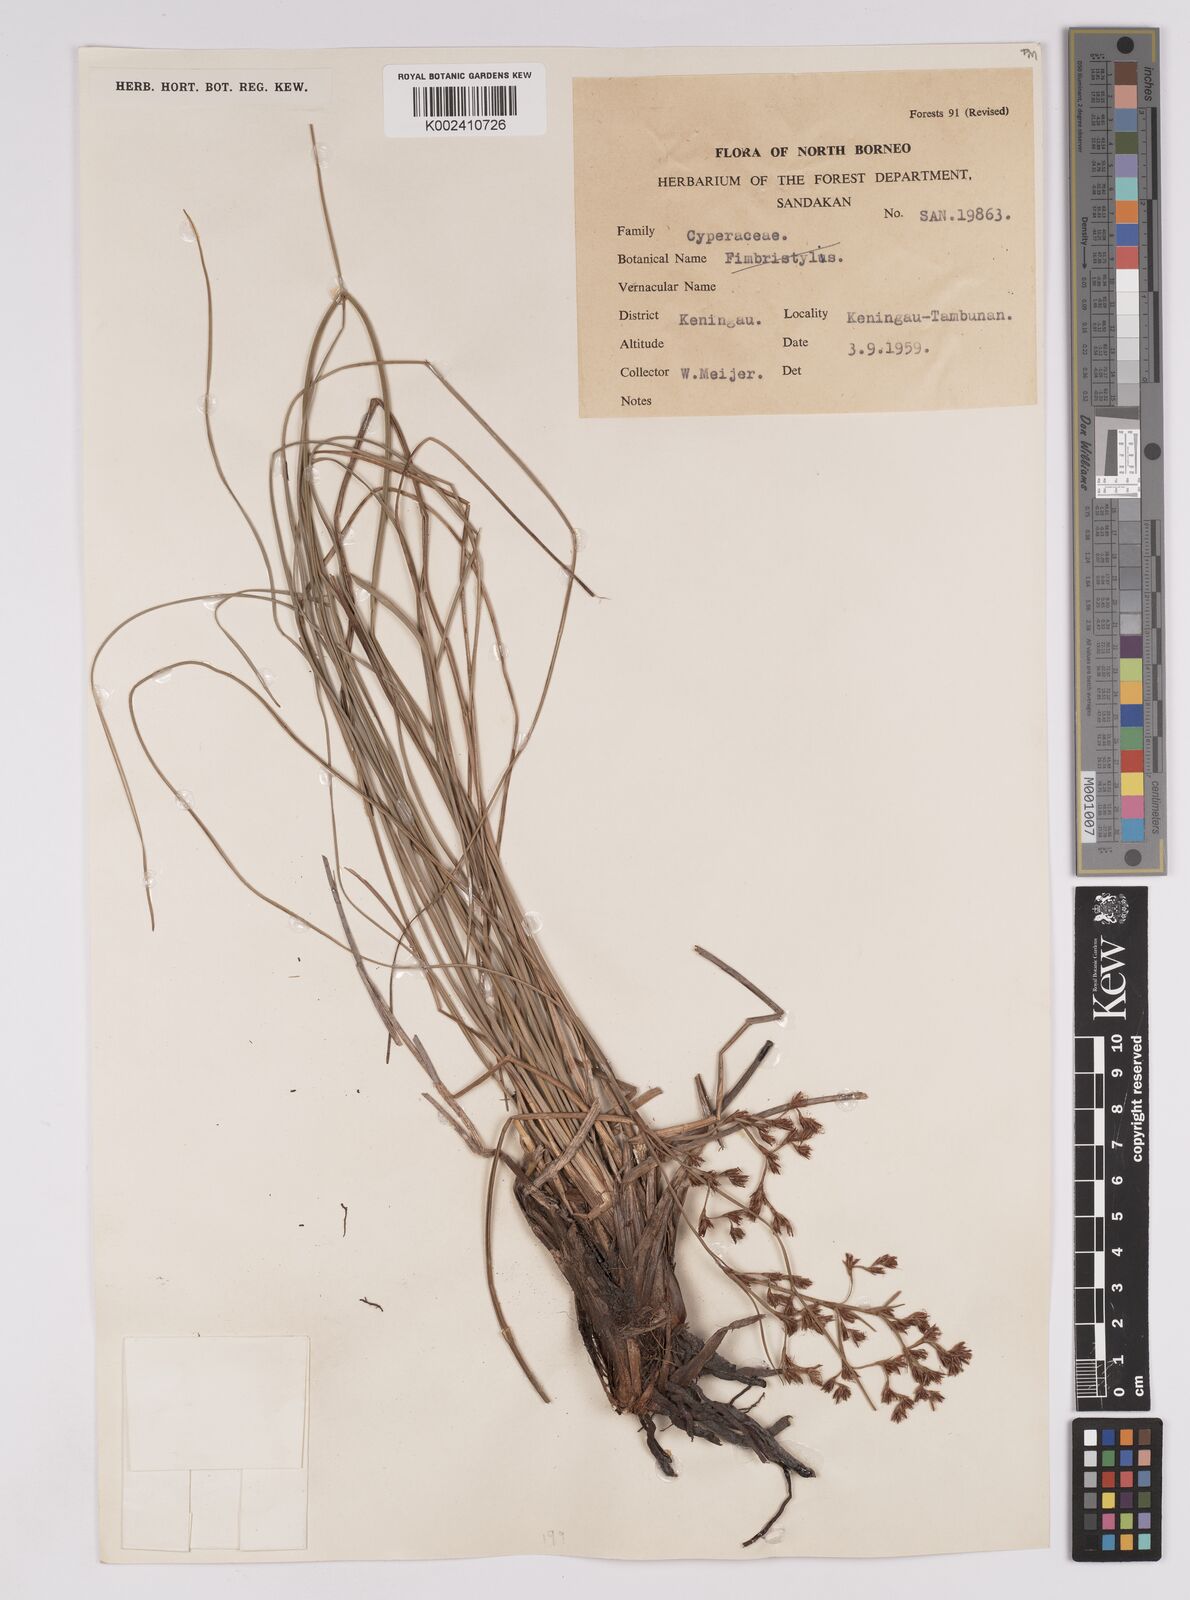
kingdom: Plantae
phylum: Tracheophyta
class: Liliopsida
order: Poales
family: Cyperaceae
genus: Anthelepis
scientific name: Anthelepis undulata
